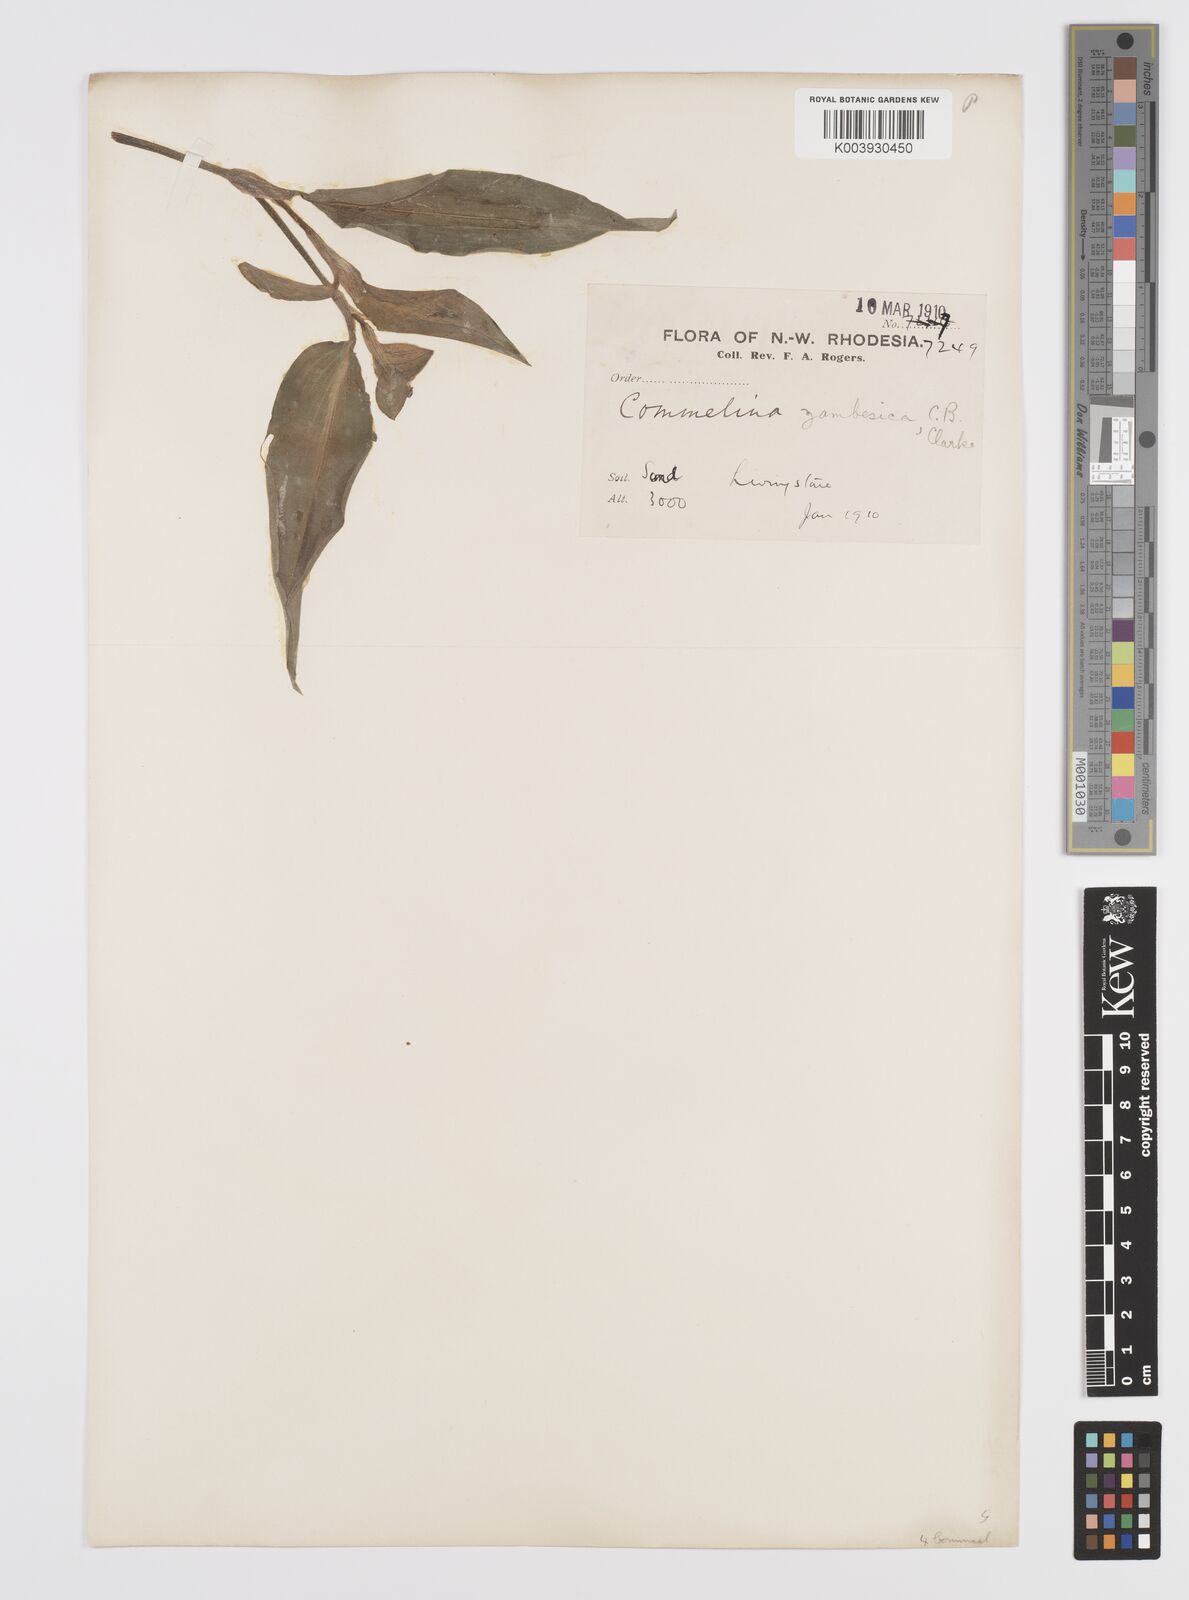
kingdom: Plantae
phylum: Tracheophyta
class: Liliopsida
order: Commelinales
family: Commelinaceae
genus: Commelina
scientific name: Commelina zambesica
